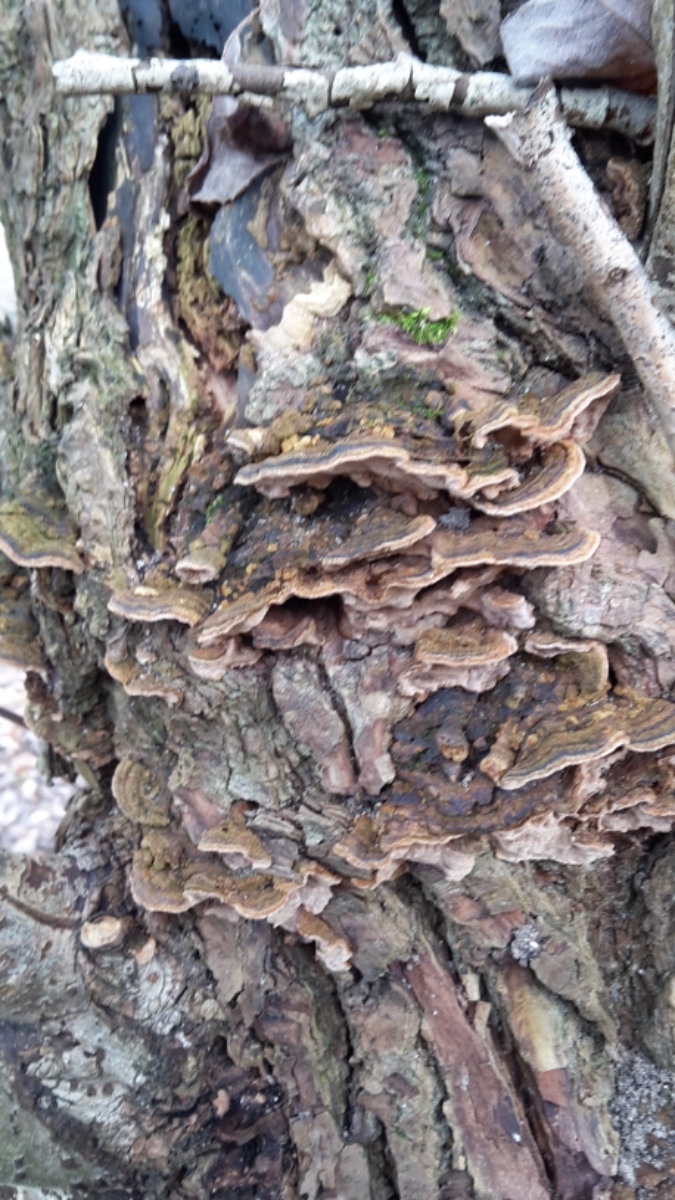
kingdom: Fungi
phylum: Basidiomycota
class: Agaricomycetes
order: Hymenochaetales
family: Hymenochaetaceae
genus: Phellinopsis
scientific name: Phellinopsis conchata
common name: pile-ildporesvamp
